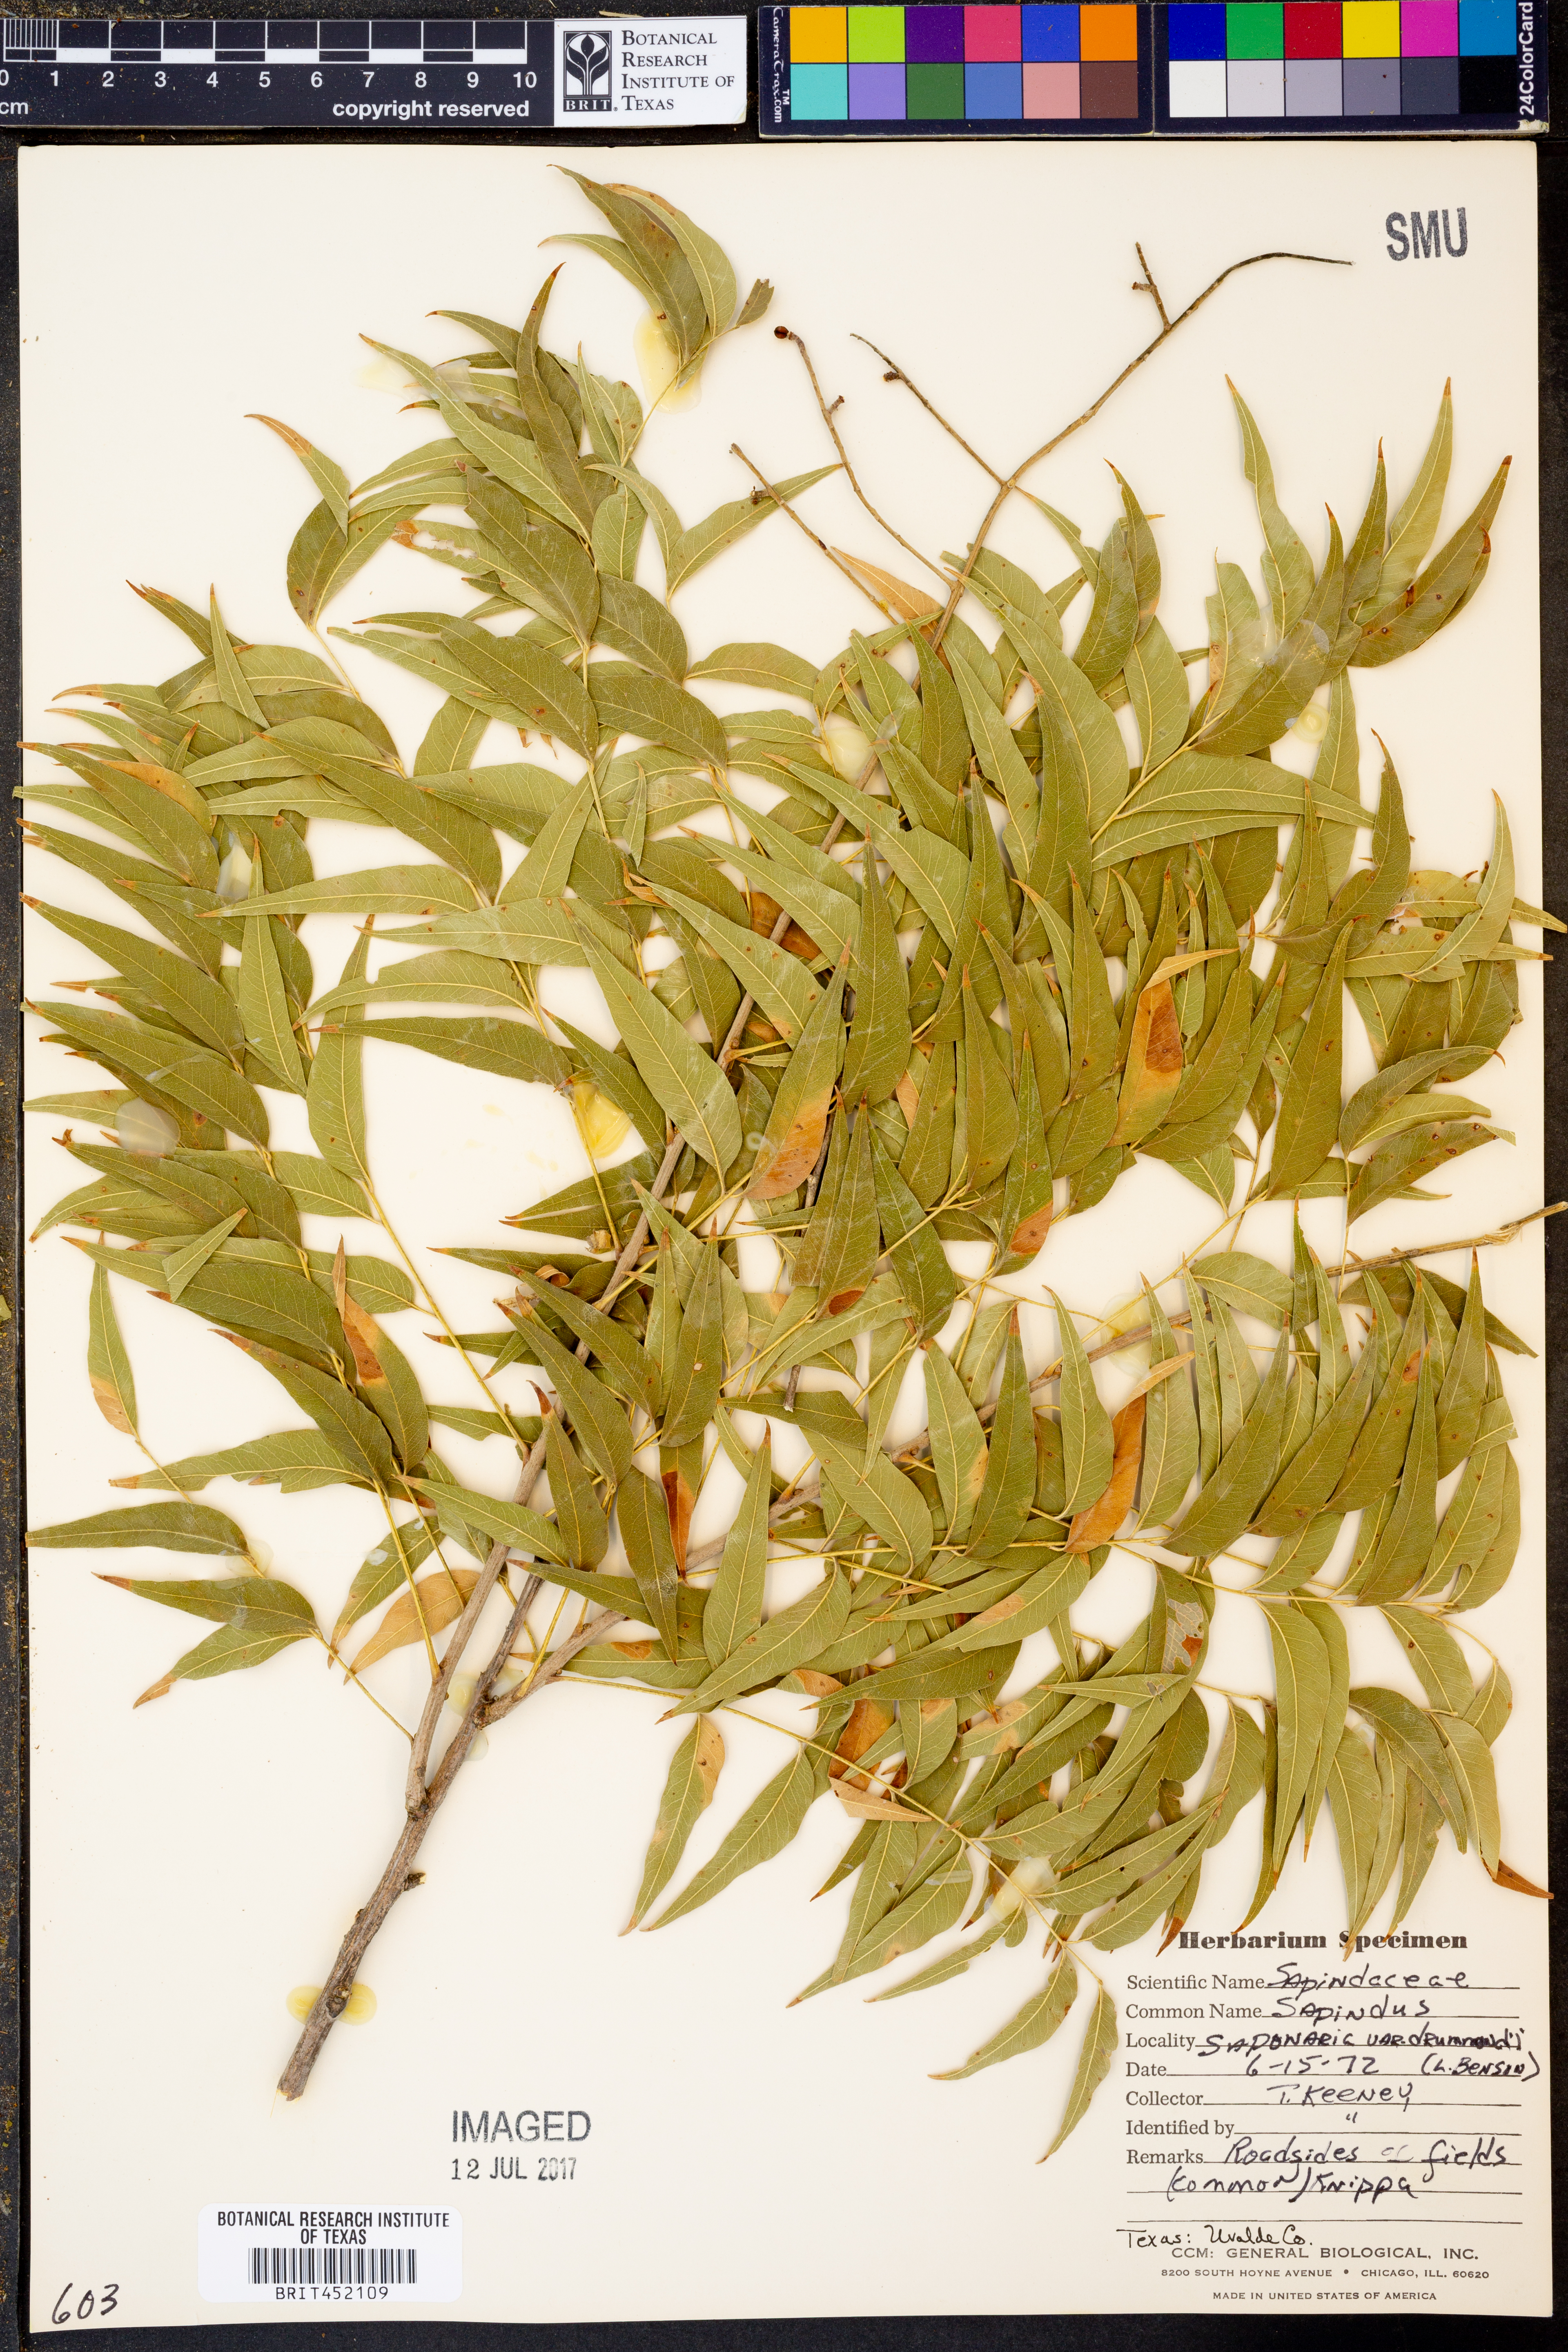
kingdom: Plantae
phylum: Tracheophyta
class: Magnoliopsida
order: Sapindales
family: Sapindaceae
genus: Sapindus
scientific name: Sapindus drummondii
